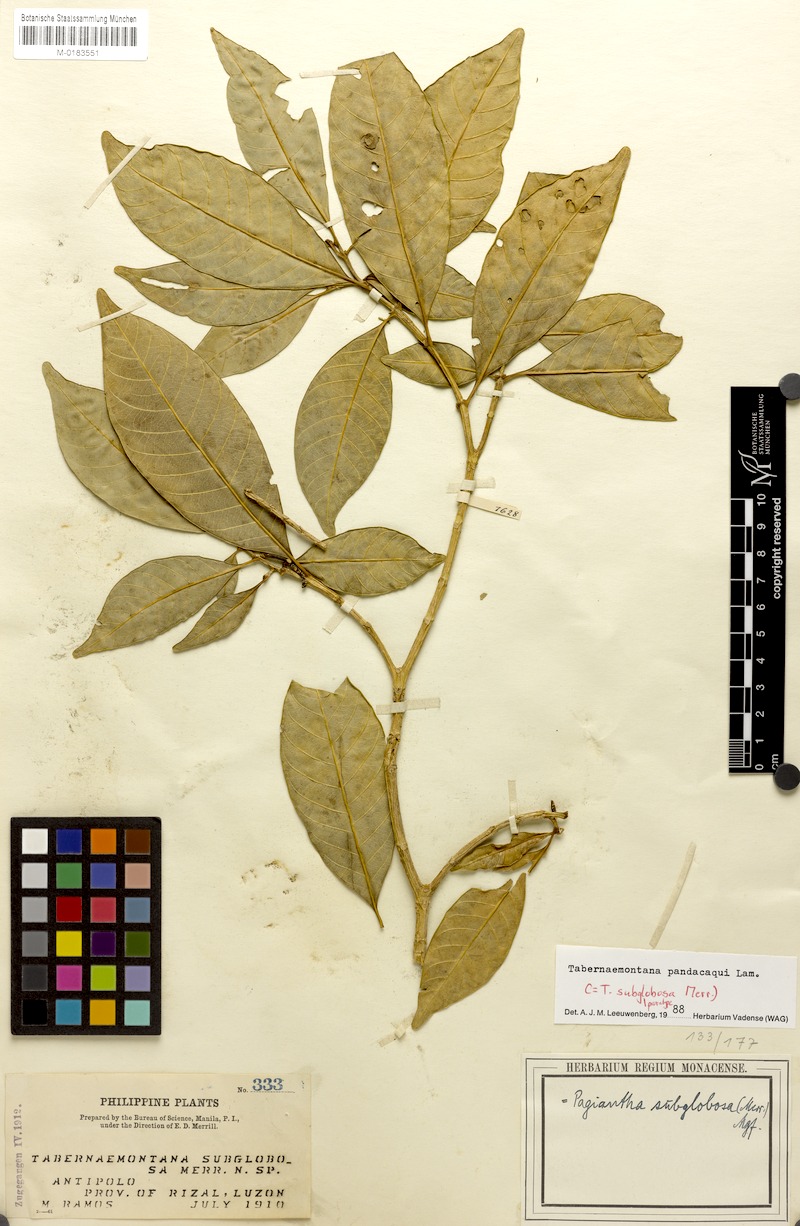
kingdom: Plantae
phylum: Tracheophyta
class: Magnoliopsida
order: Gentianales
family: Apocynaceae
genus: Tabernaemontana
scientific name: Tabernaemontana pandacaqui
